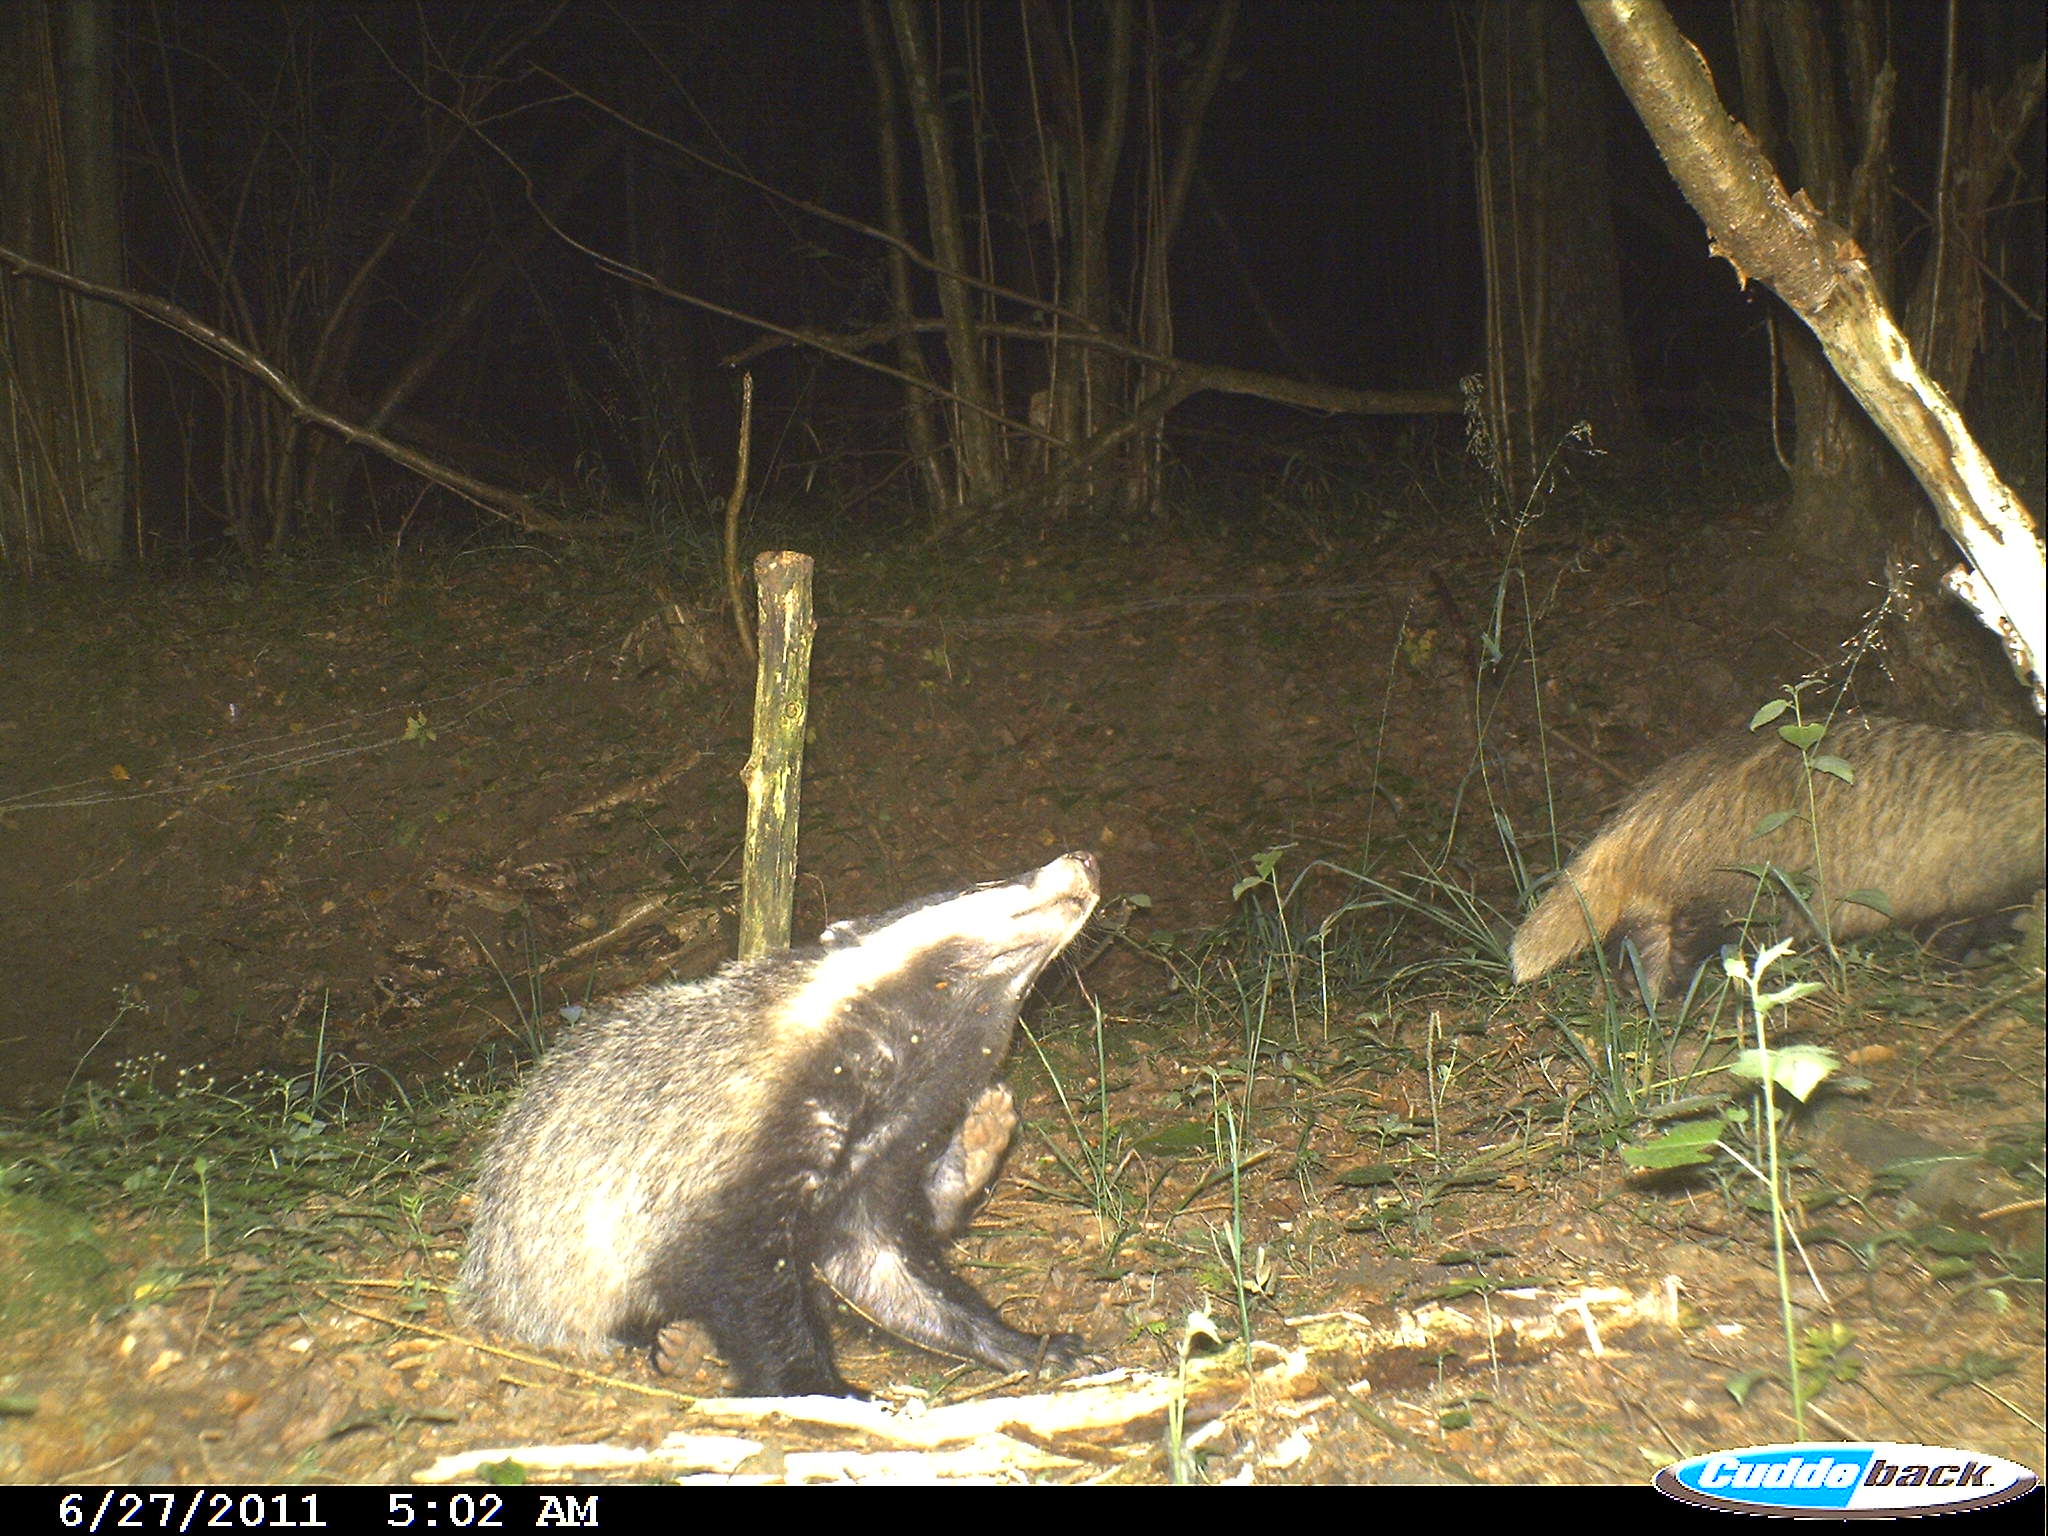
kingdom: Animalia
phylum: Chordata
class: Mammalia
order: Carnivora
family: Mustelidae
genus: Meles
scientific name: Meles meles
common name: Eurasian badger
